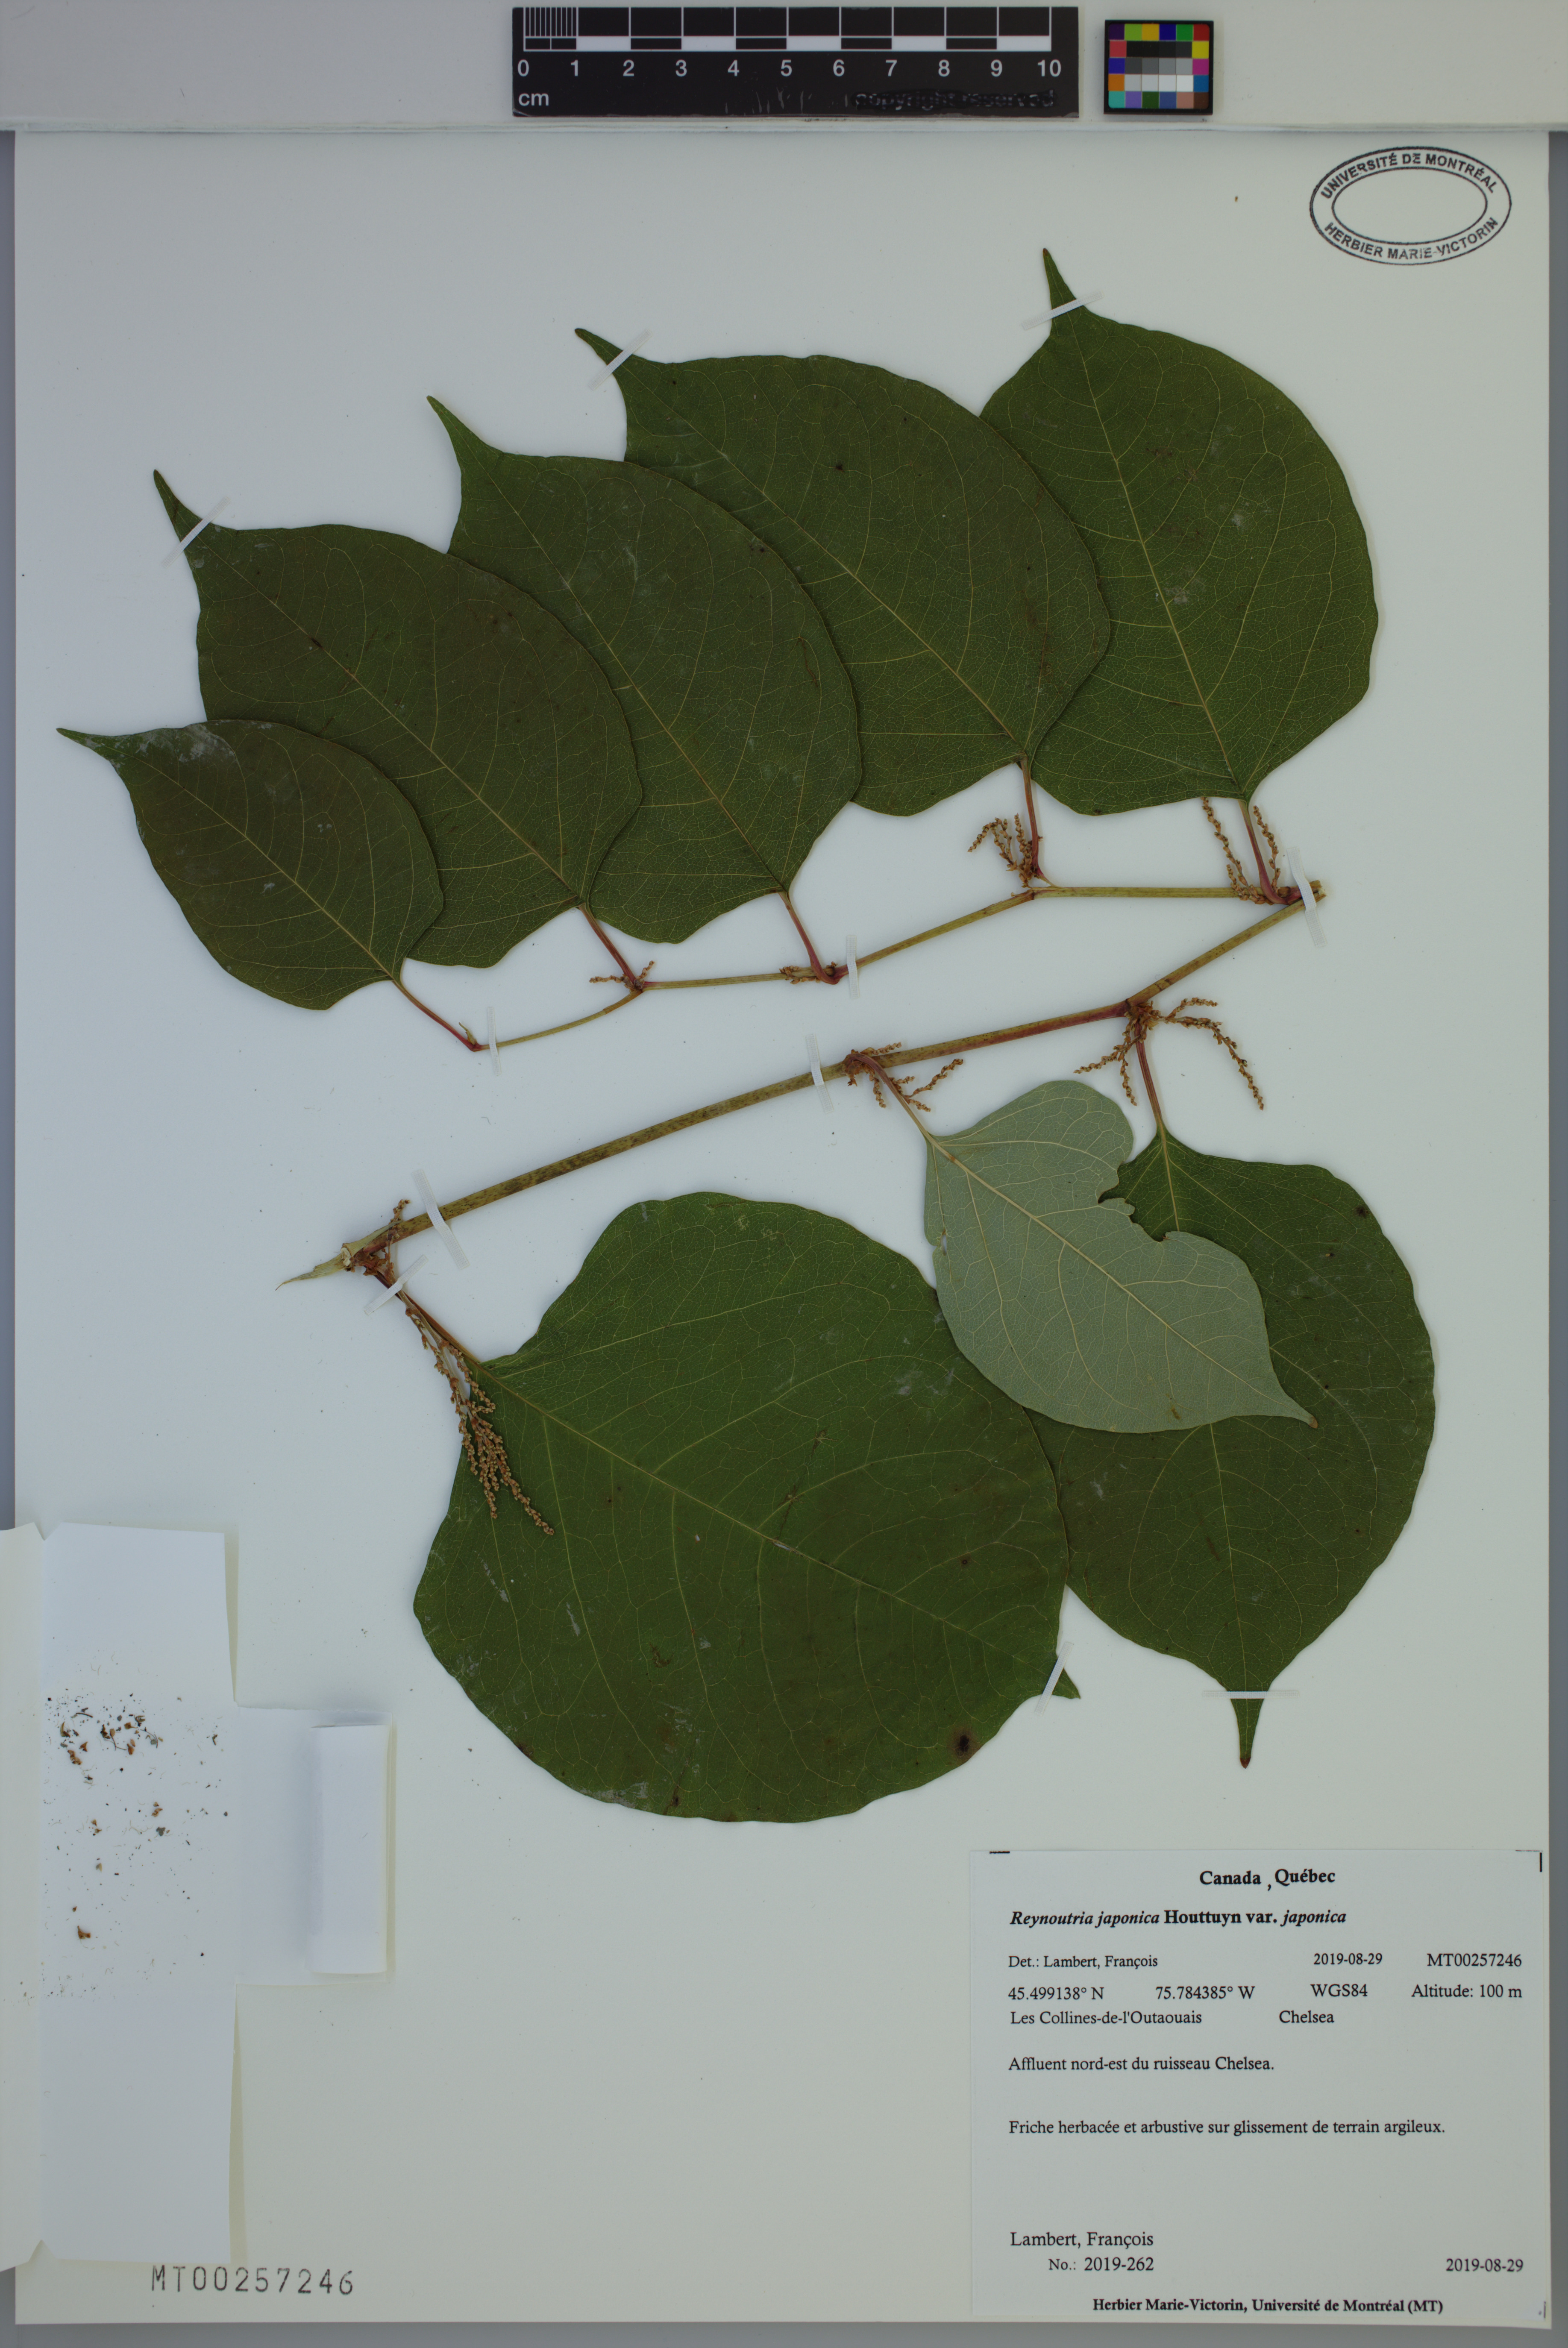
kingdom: Plantae
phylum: Tracheophyta
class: Magnoliopsida
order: Caryophyllales
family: Polygonaceae
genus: Reynoutria
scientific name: Reynoutria japonica
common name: Japanese knotweed
